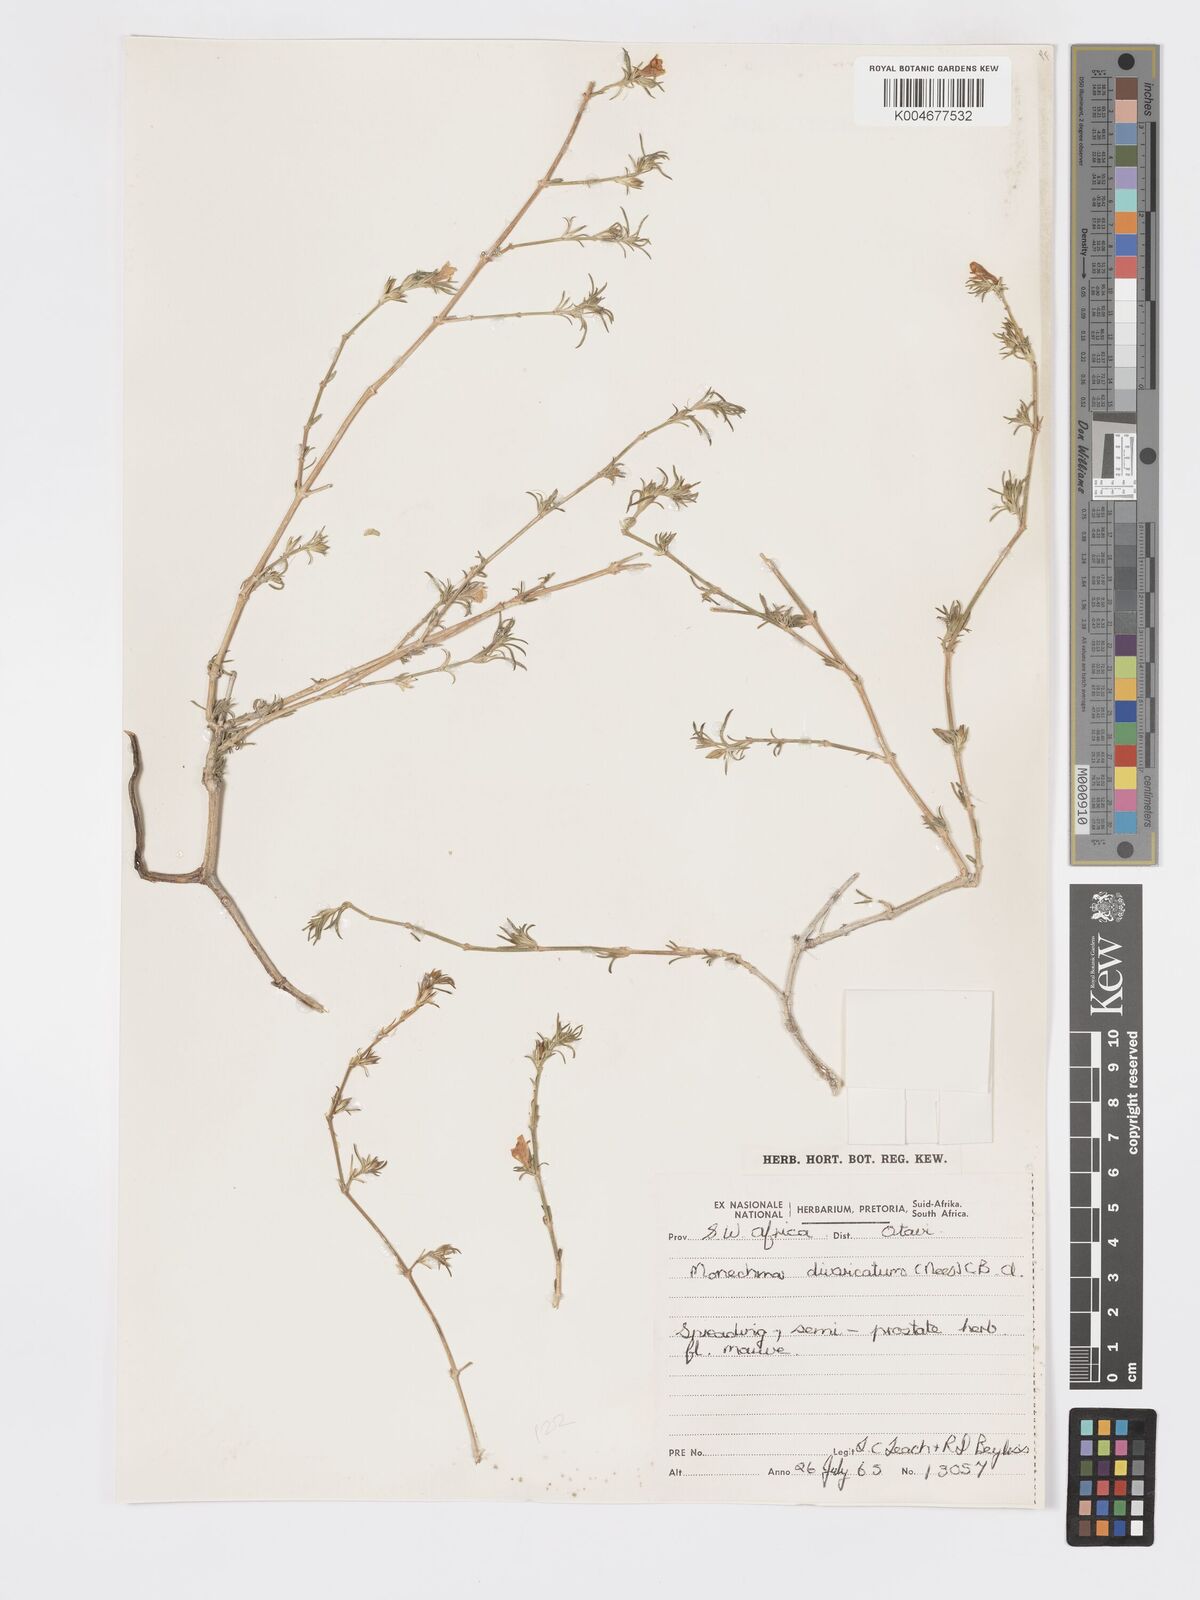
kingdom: Plantae
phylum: Tracheophyta
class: Magnoliopsida
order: Lamiales
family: Acanthaceae
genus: Pogonospermum
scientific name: Pogonospermum
